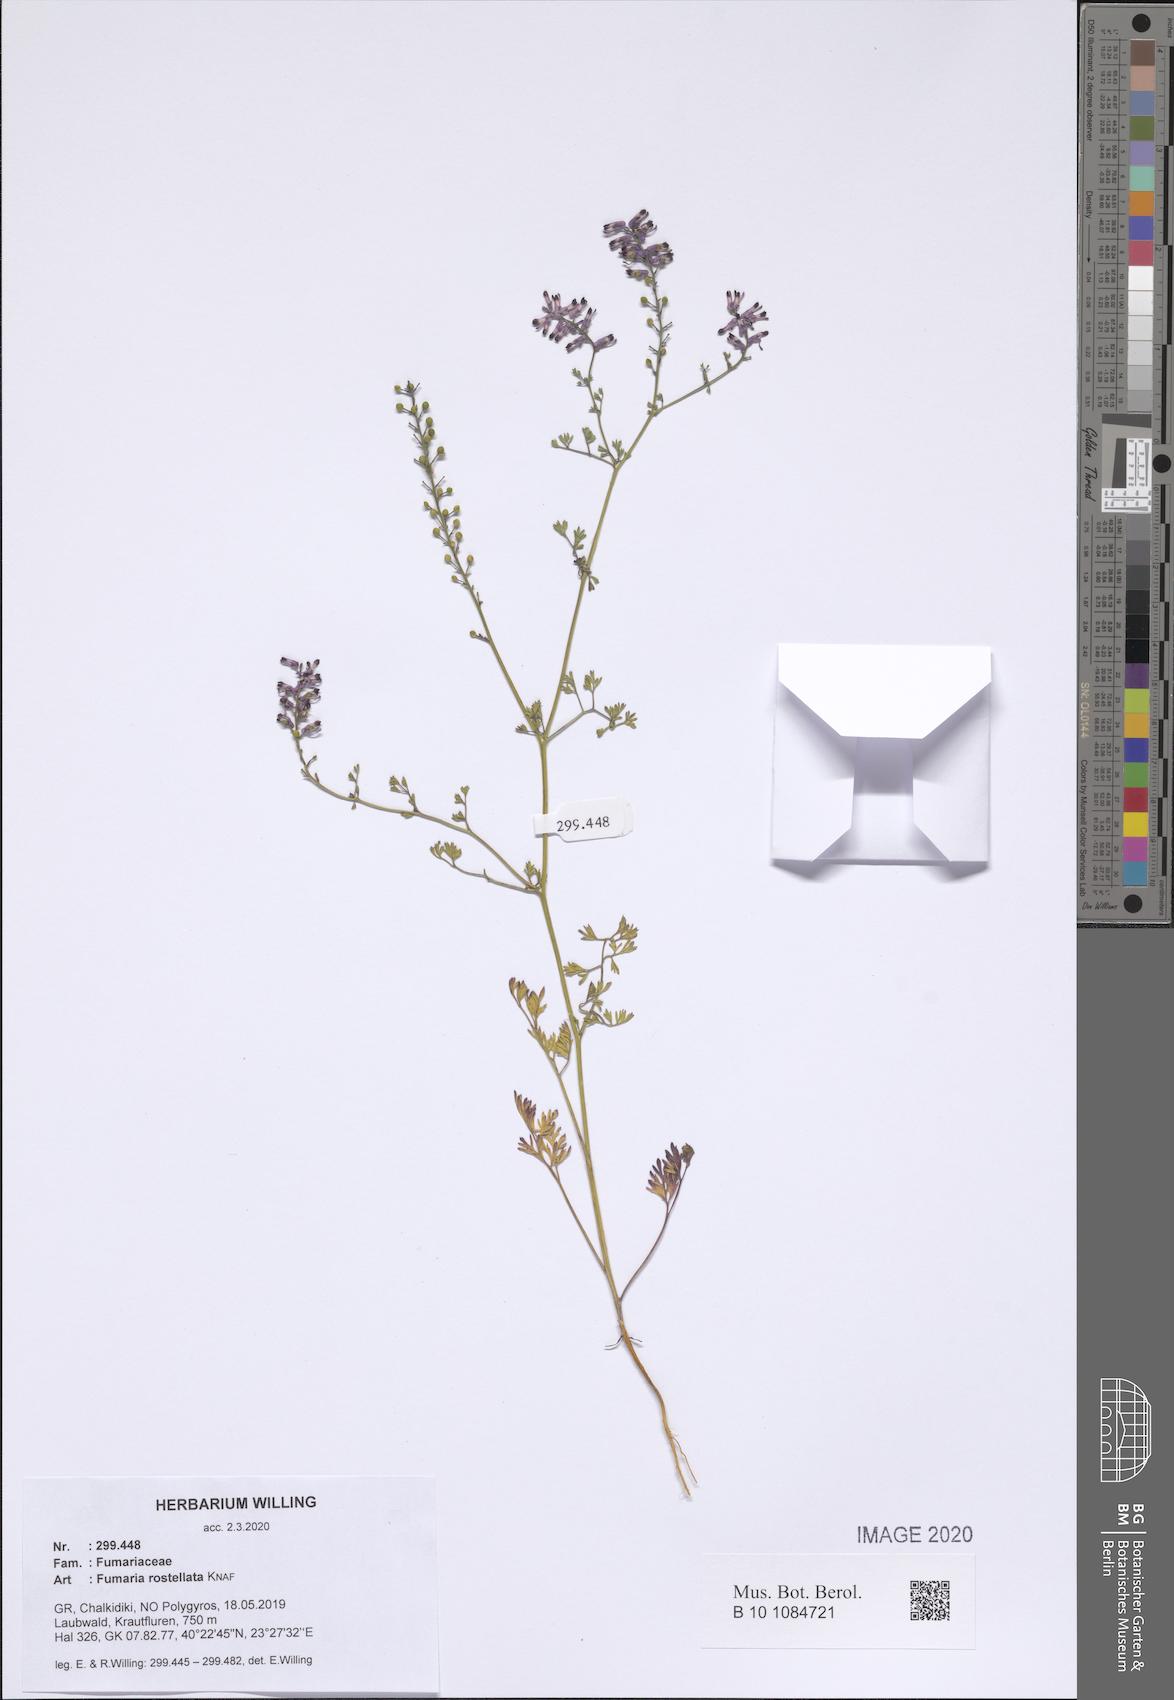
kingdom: Plantae
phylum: Tracheophyta
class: Magnoliopsida
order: Ranunculales
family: Papaveraceae
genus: Fumaria
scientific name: Fumaria rostellata
